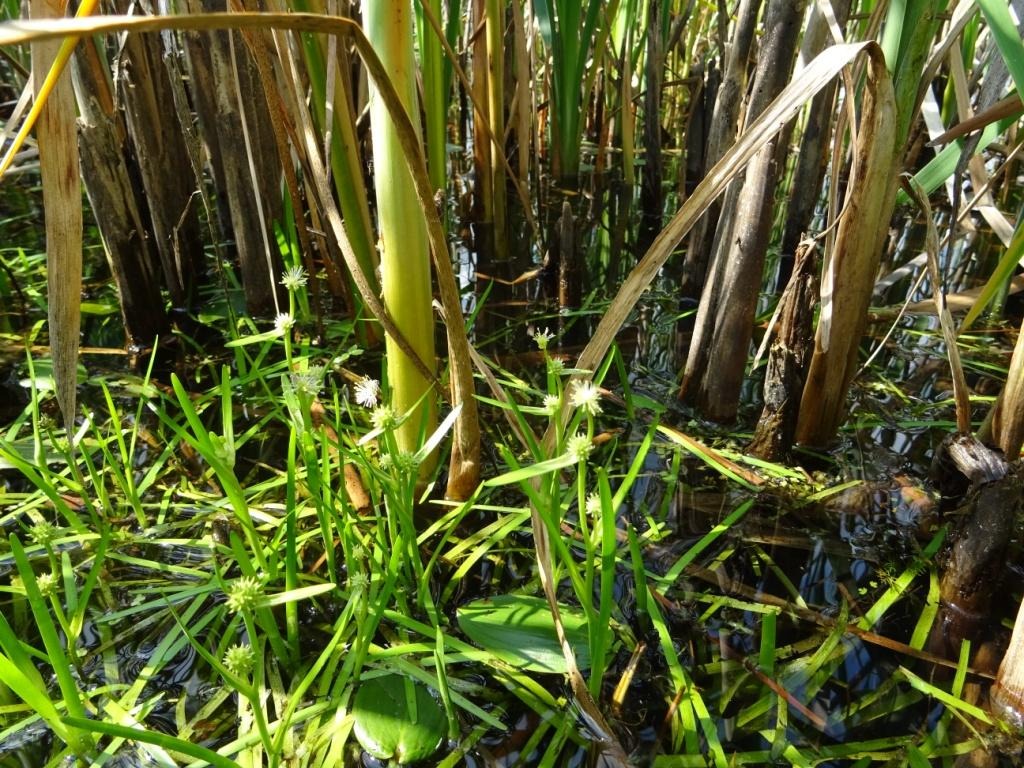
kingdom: Plantae
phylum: Tracheophyta
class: Liliopsida
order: Poales
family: Typhaceae
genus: Sparganium
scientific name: Sparganium natans
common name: Spæd pindsvineknop
